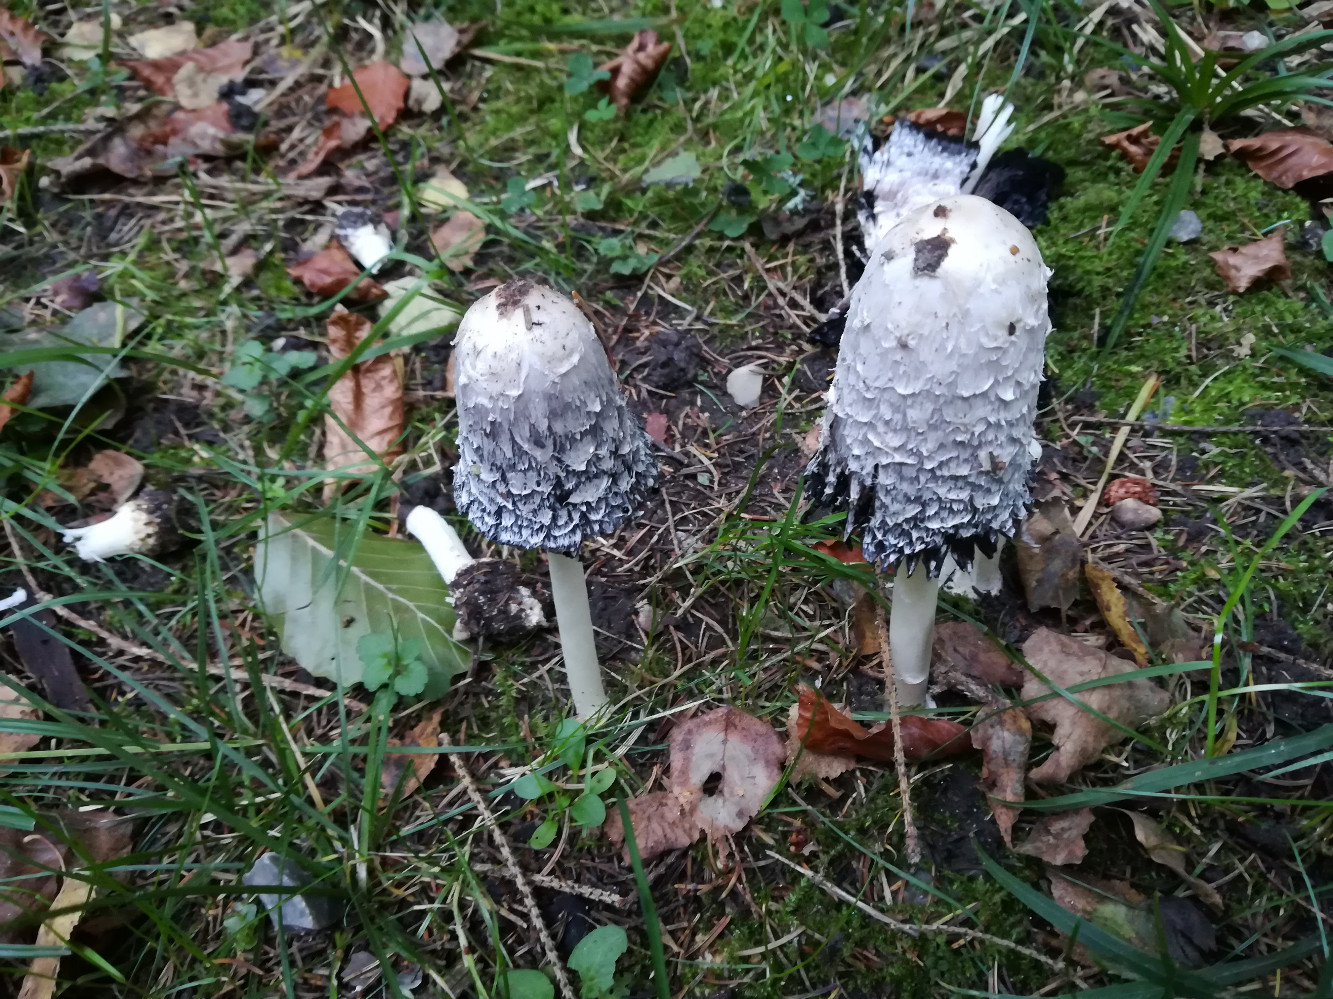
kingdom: Fungi
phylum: Basidiomycota
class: Agaricomycetes
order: Agaricales
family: Agaricaceae
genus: Coprinus
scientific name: Coprinus comatus
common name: stor parykhat
